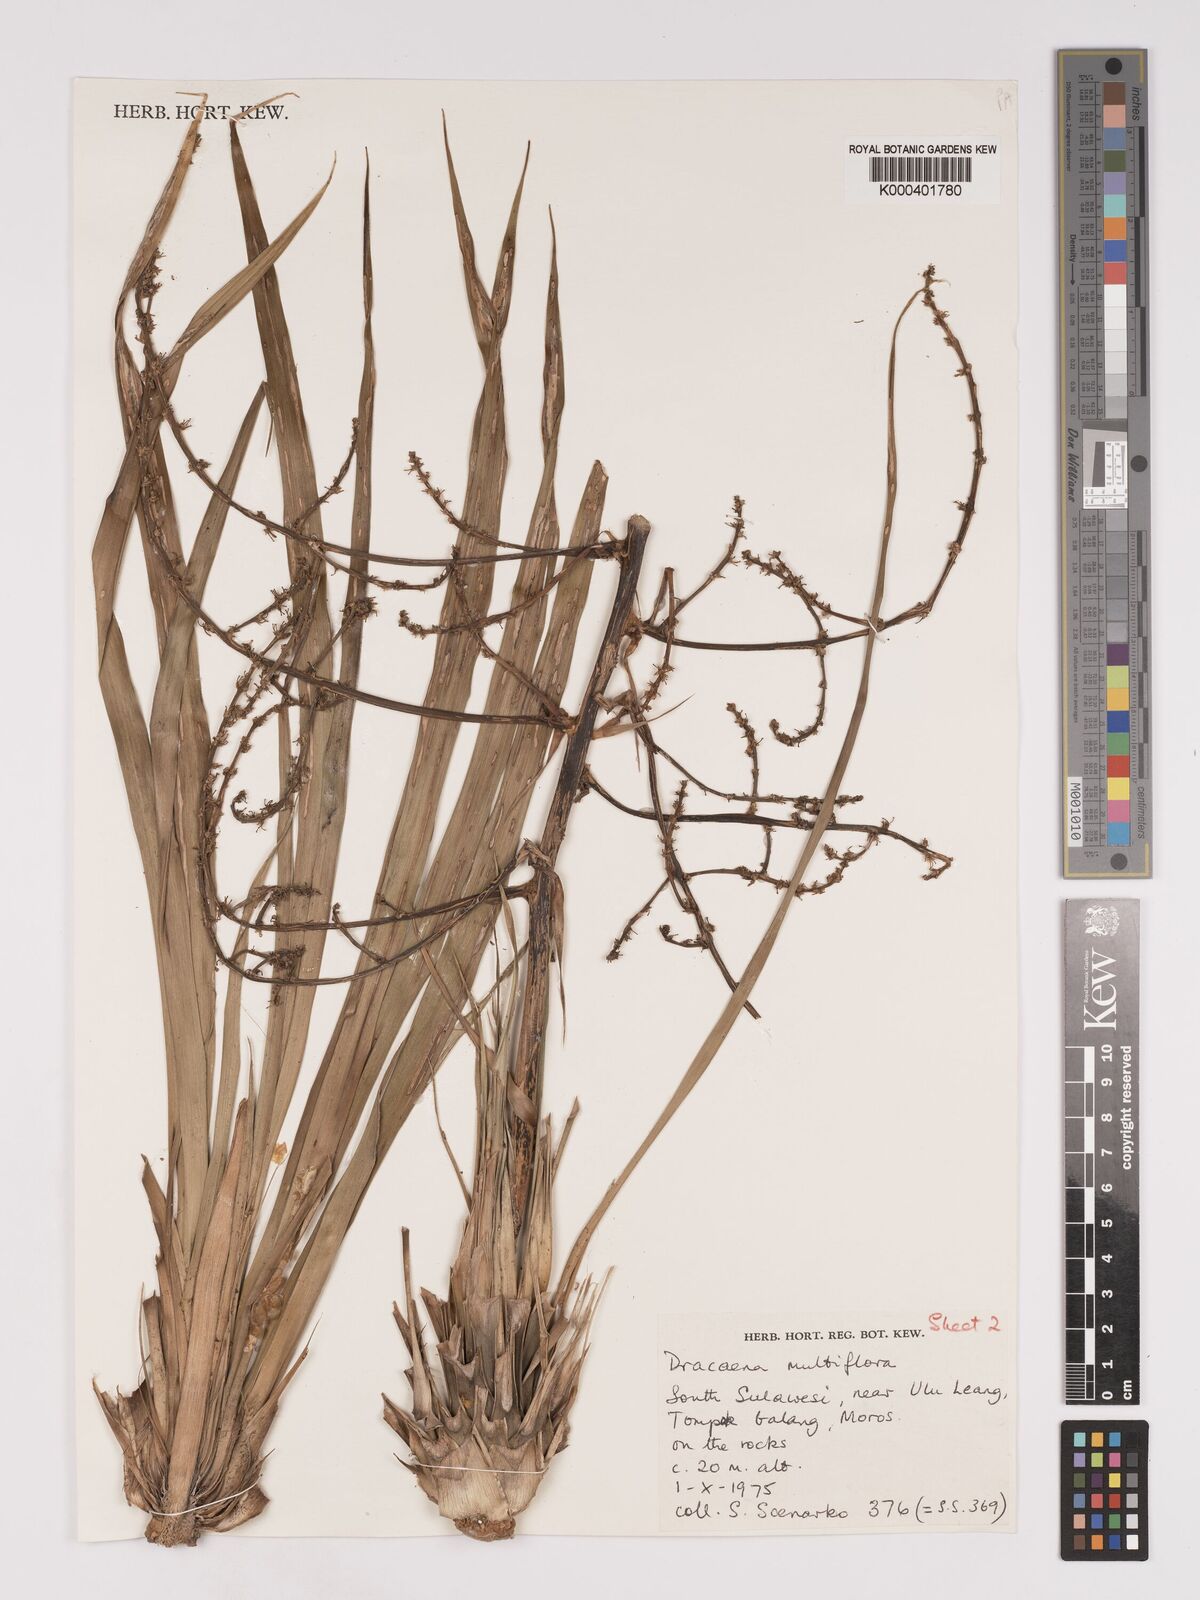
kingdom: Plantae
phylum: Tracheophyta
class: Liliopsida
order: Asparagales
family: Asparagaceae
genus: Dracaena
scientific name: Dracaena multiflora
